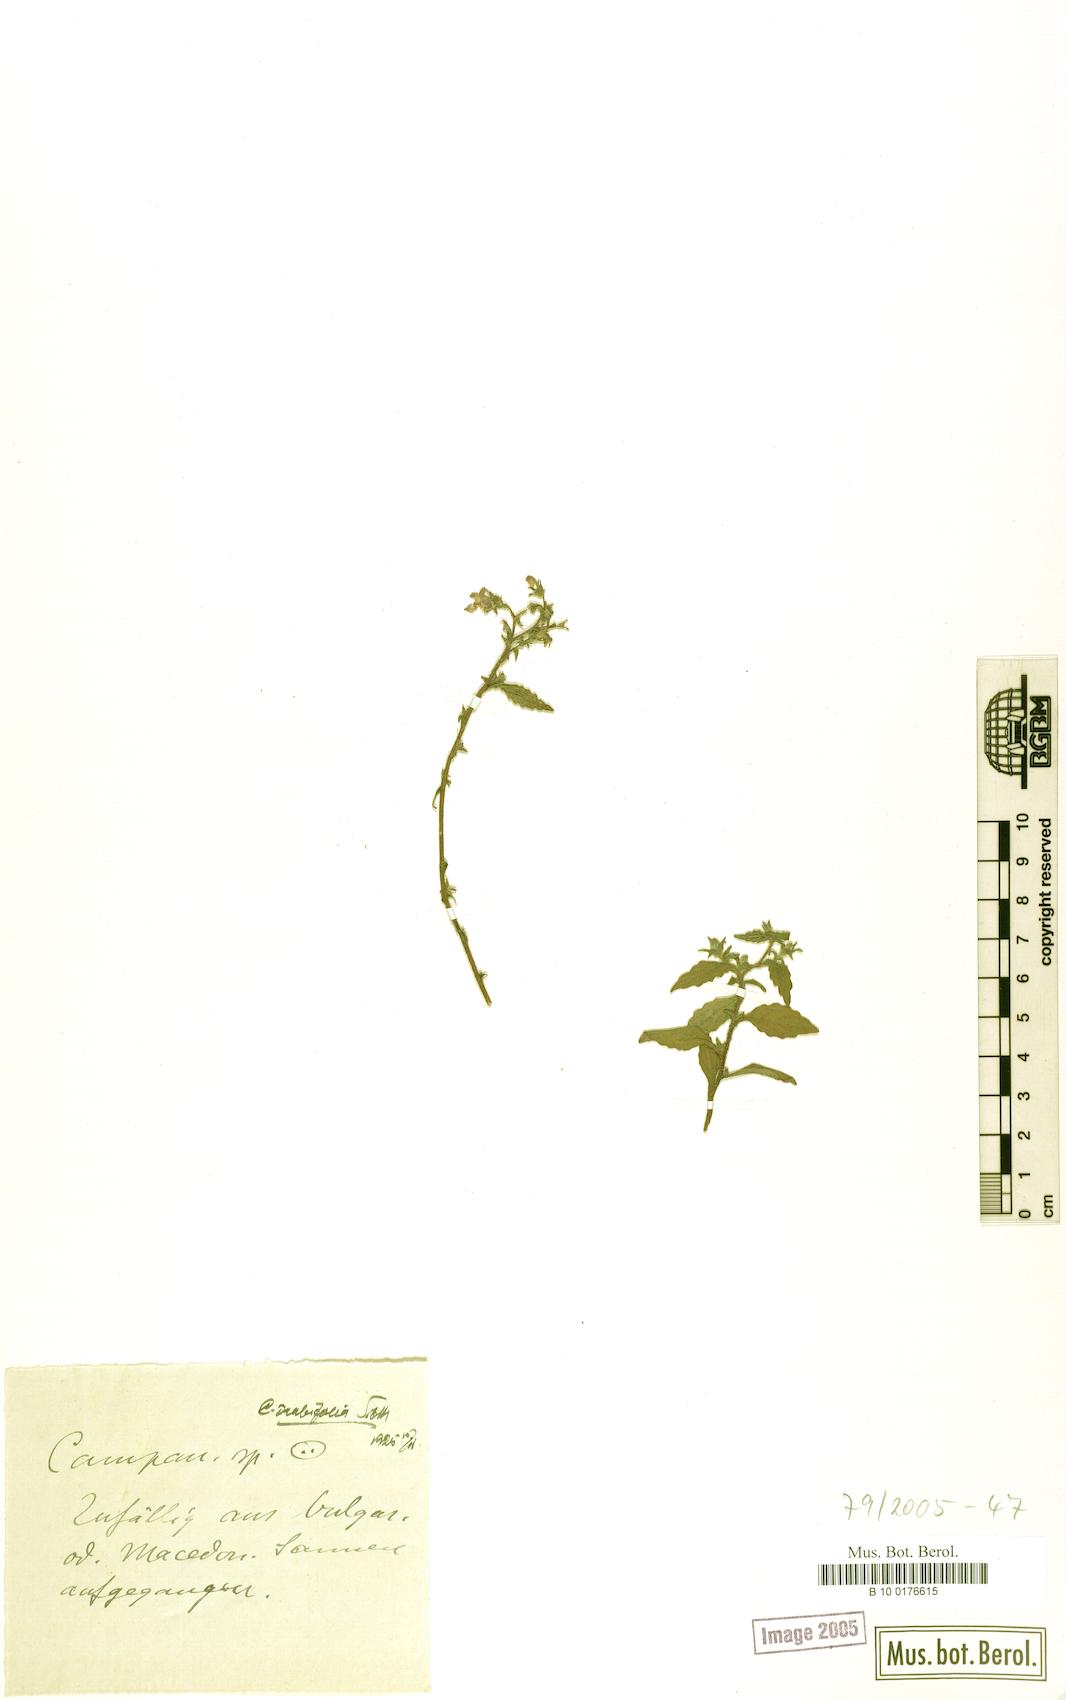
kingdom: Plantae
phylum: Tracheophyta
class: Magnoliopsida
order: Asterales
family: Campanulaceae
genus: Campanula
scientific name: Campanula drabifolia
